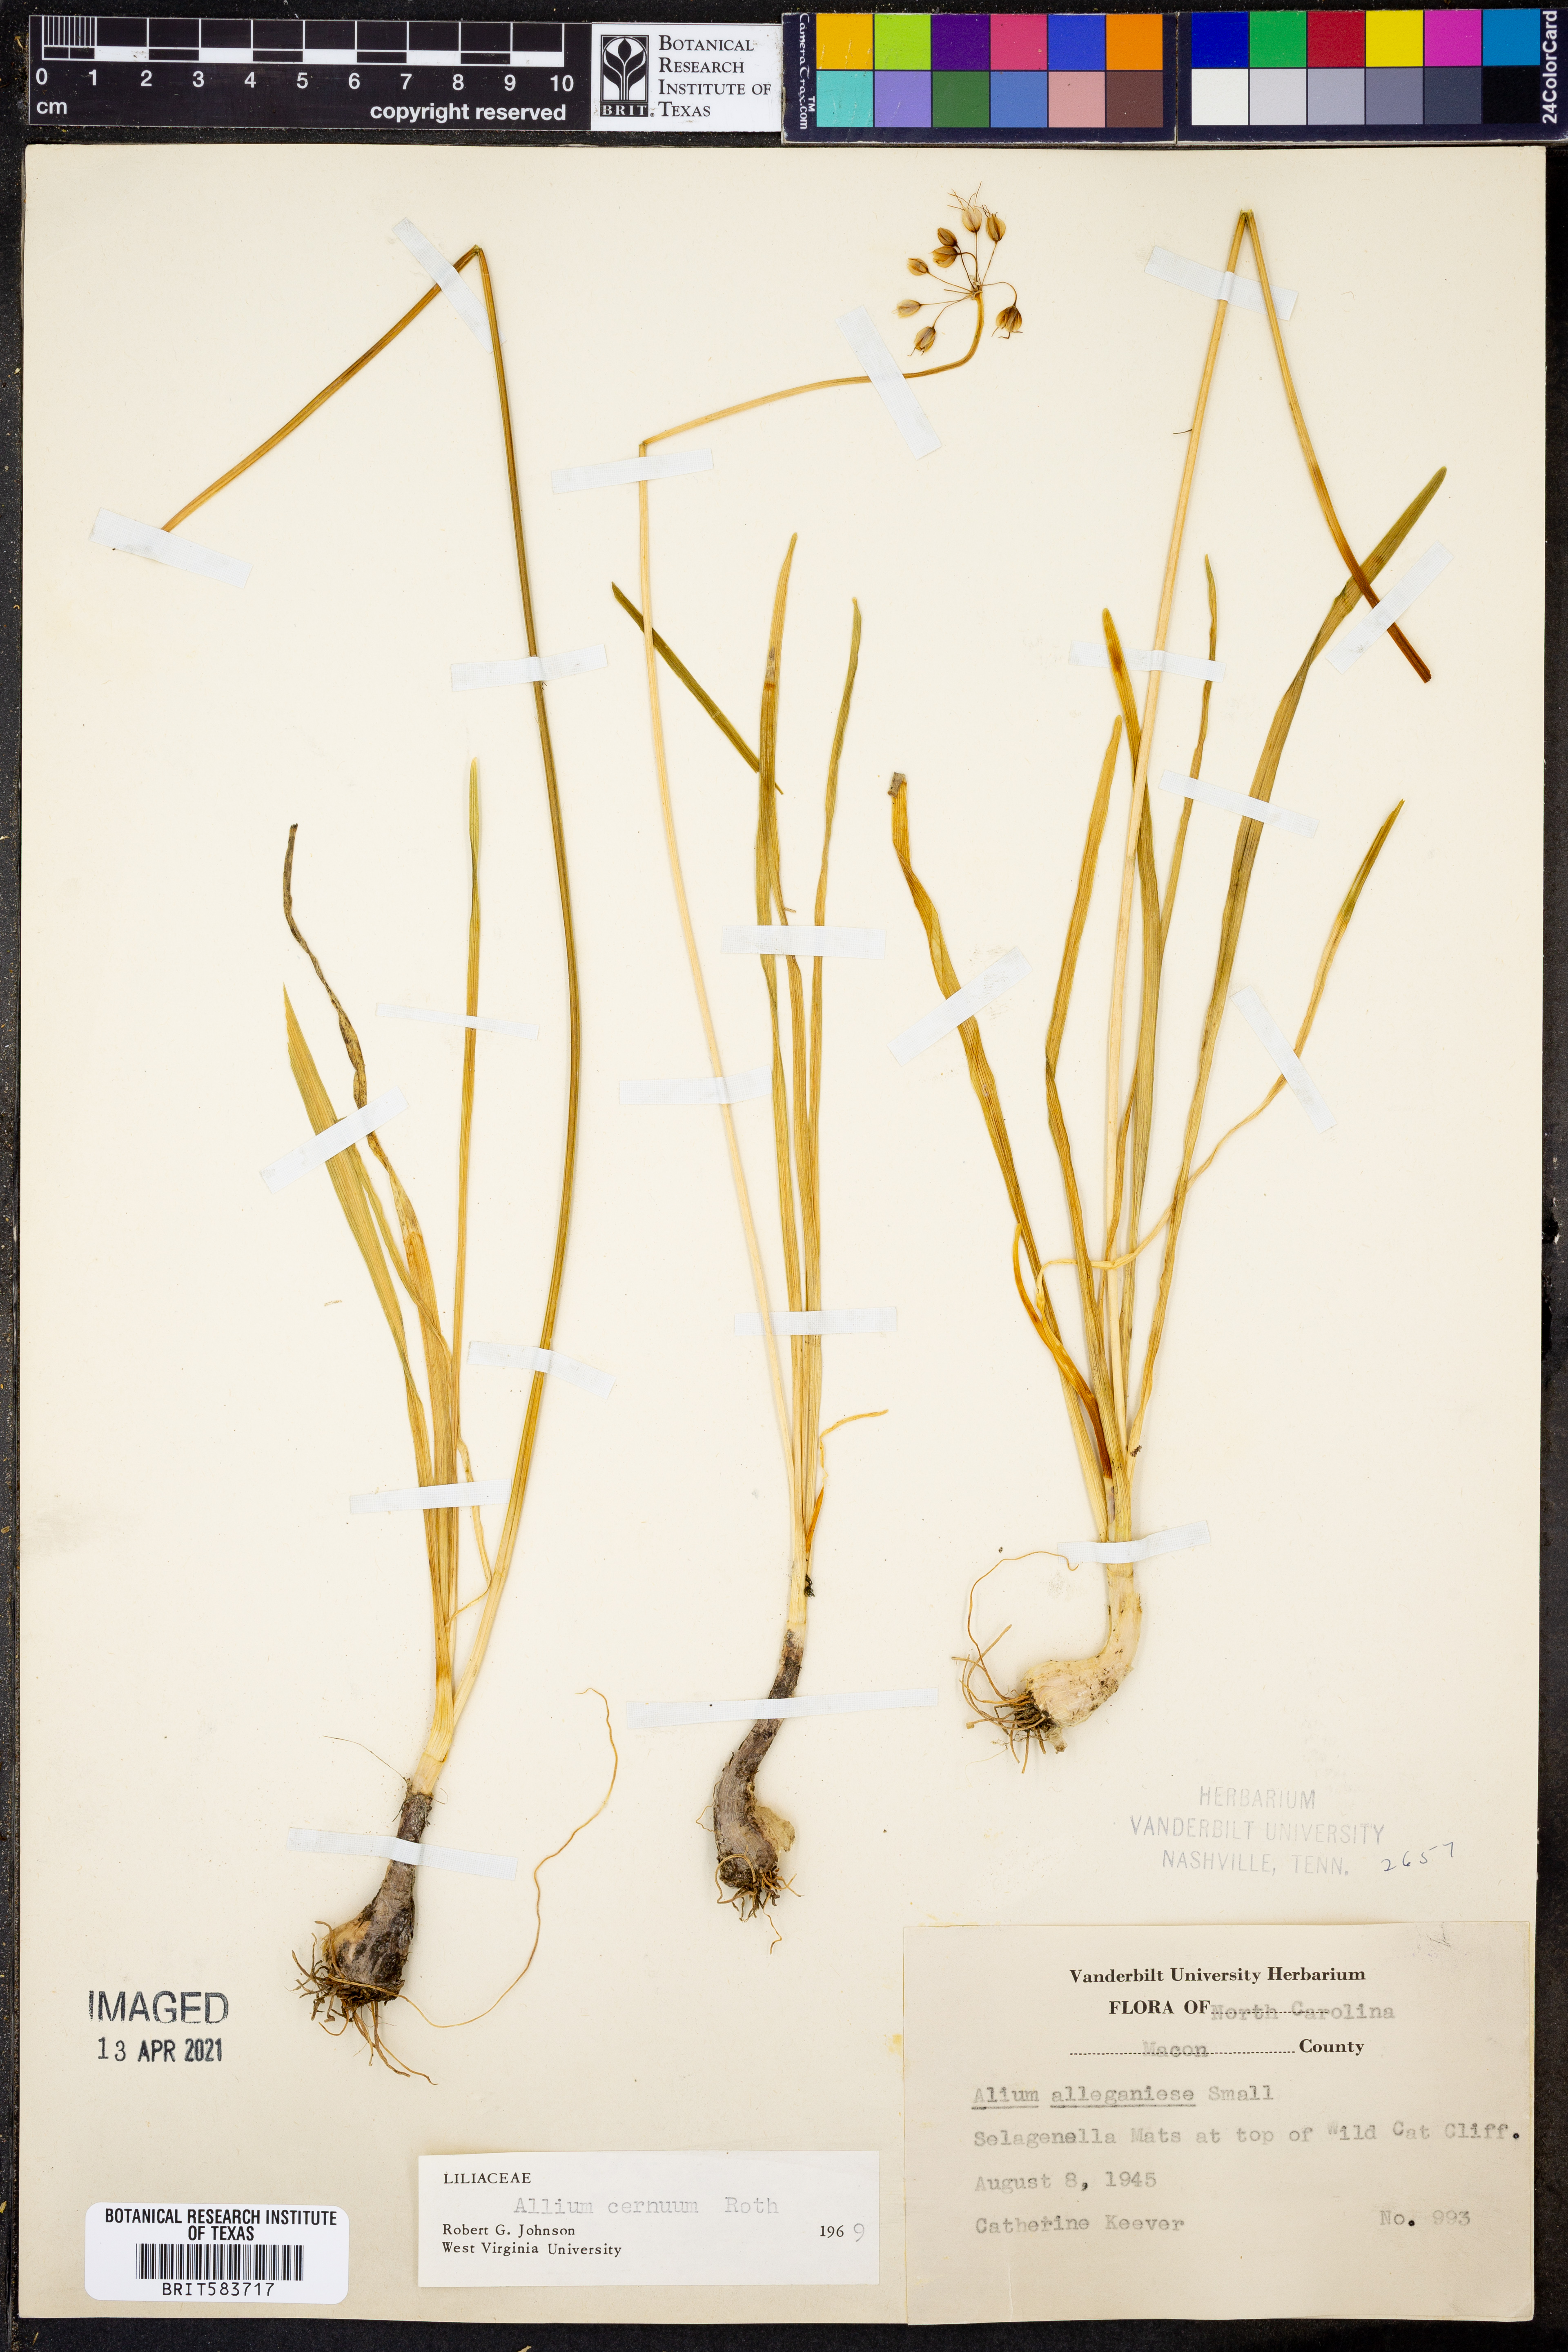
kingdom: Plantae
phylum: Tracheophyta
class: Liliopsida
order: Asparagales
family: Amaryllidaceae
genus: Allium
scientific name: Allium cernuum
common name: Nodding onion
